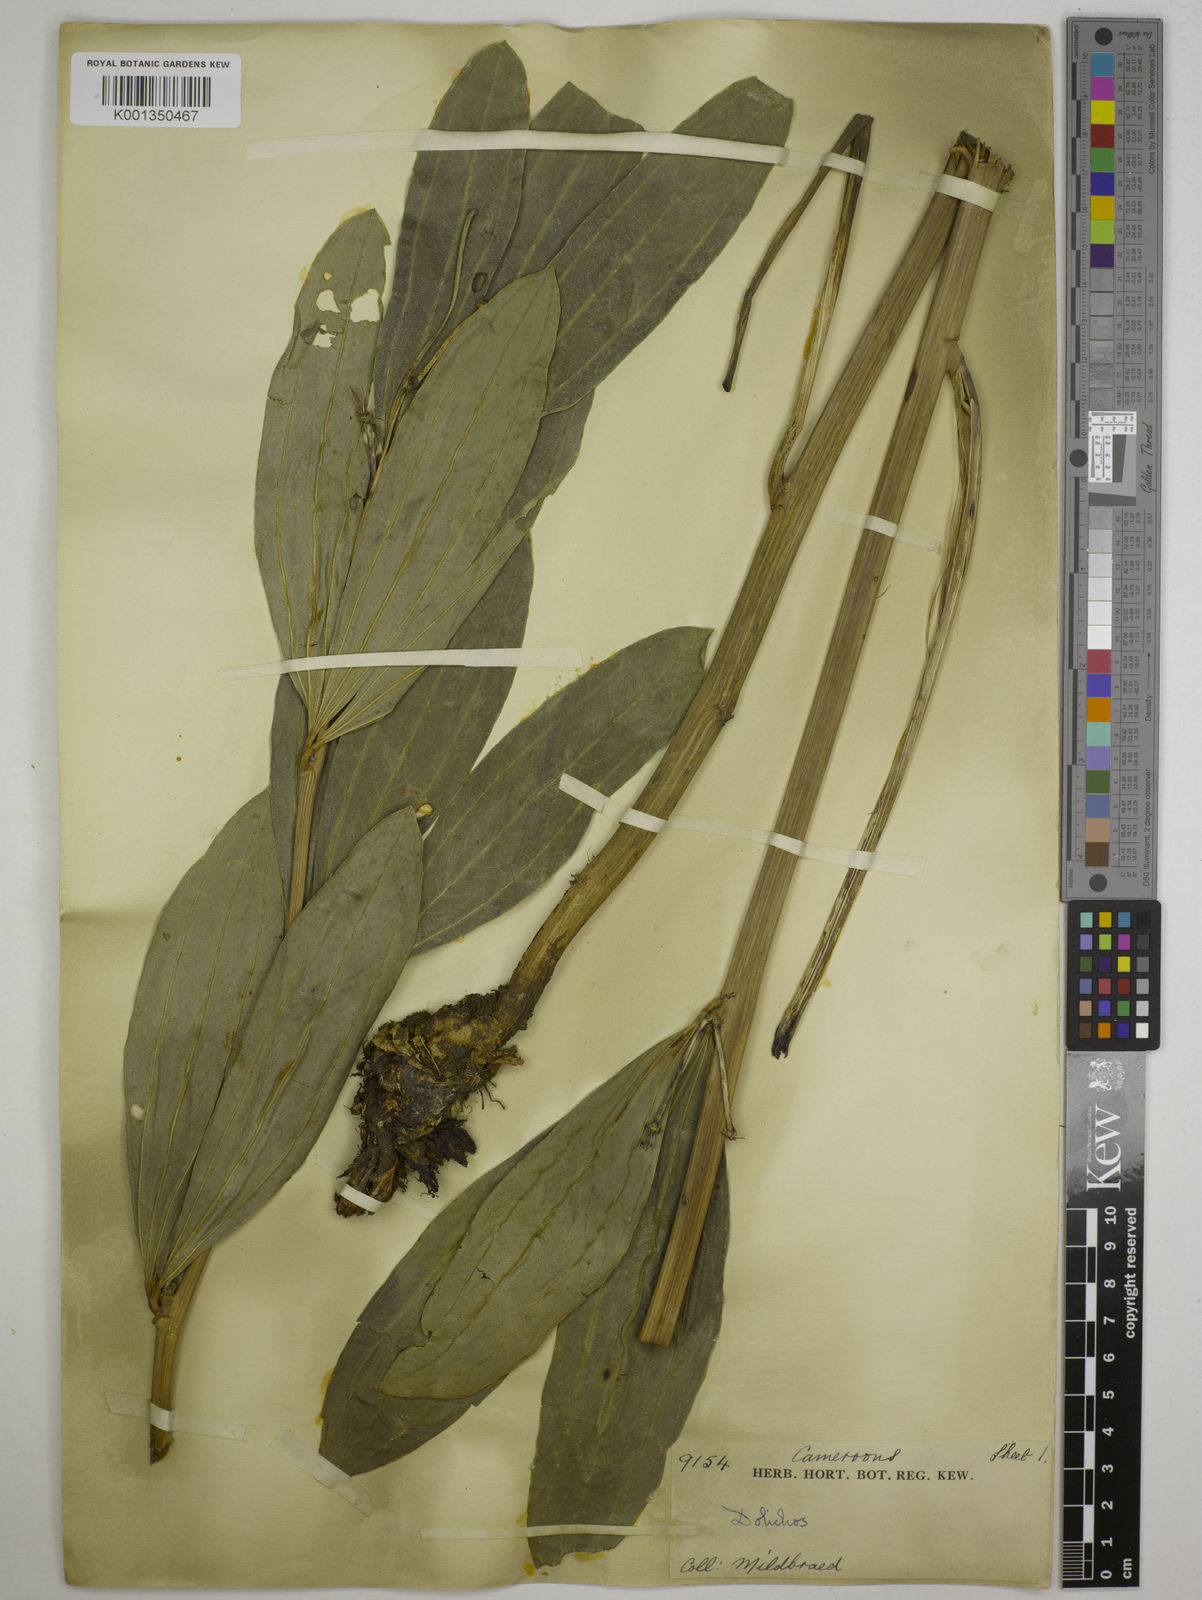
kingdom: Plantae
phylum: Tracheophyta
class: Magnoliopsida
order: Fabales
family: Fabaceae
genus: Dolichos
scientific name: Dolichos schweinfurthii
